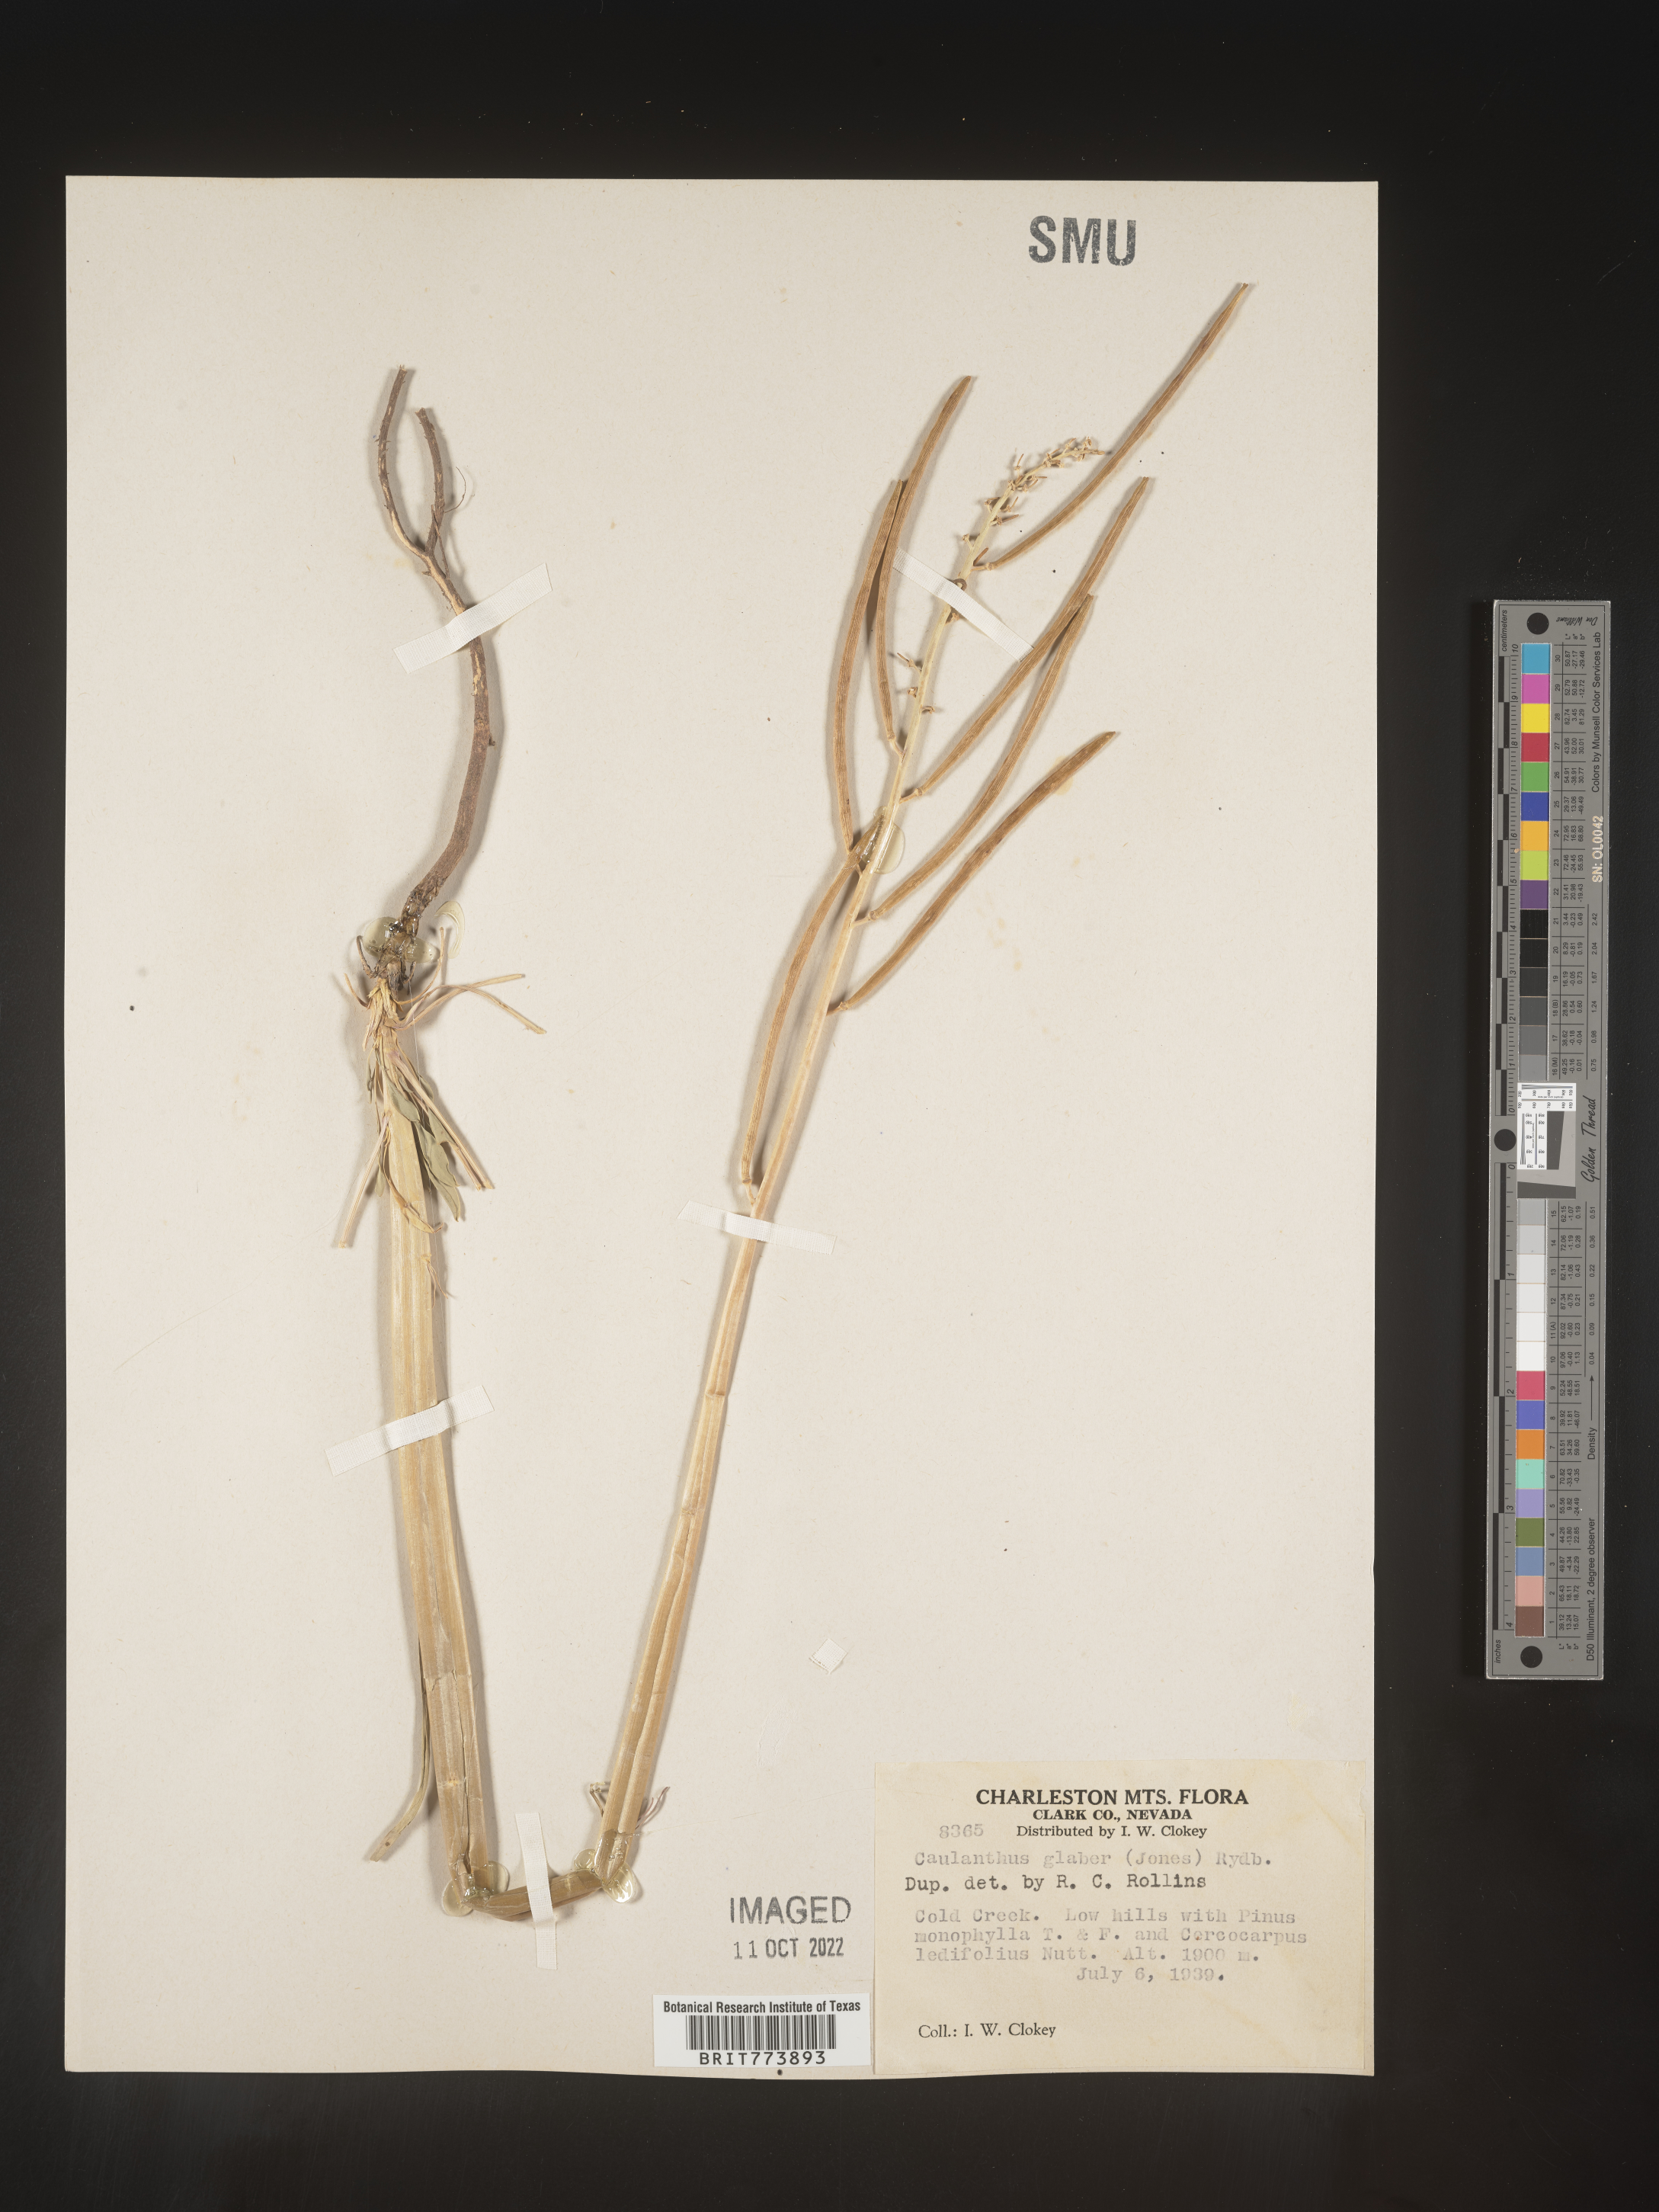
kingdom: Plantae
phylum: Tracheophyta
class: Magnoliopsida
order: Brassicales
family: Brassicaceae
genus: Streptanthus
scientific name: Streptanthus
